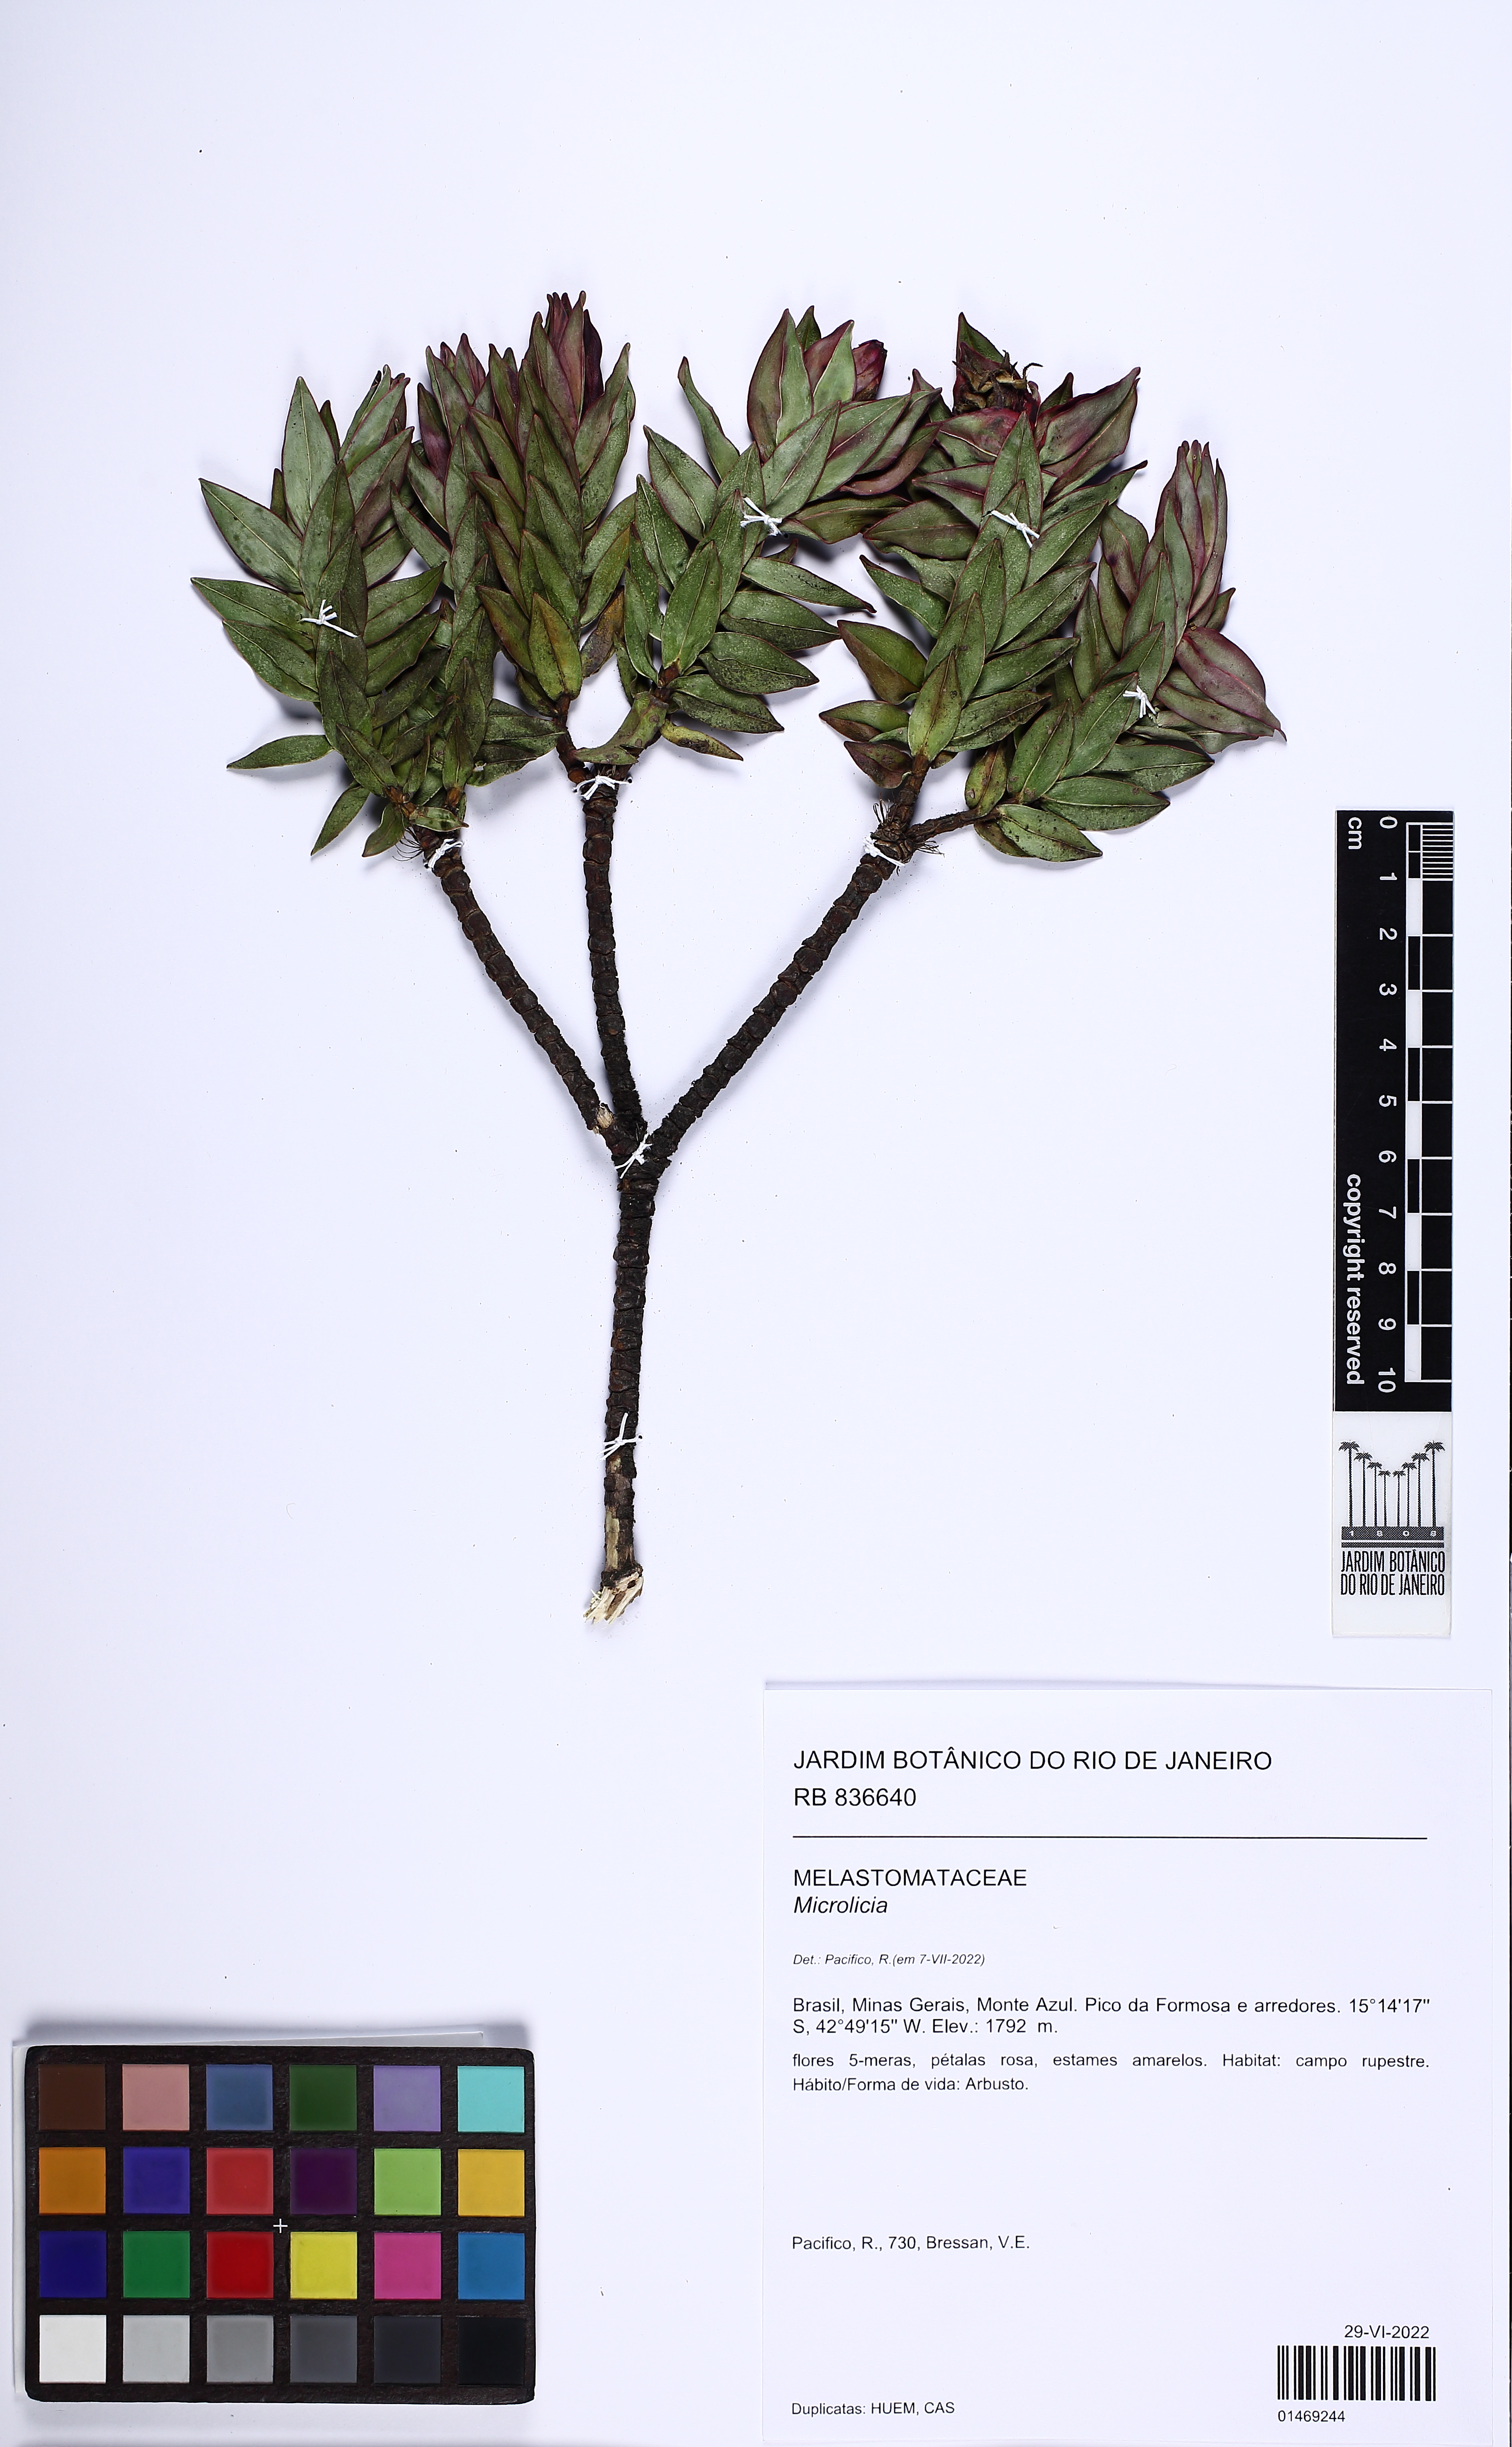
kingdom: Plantae
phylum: Tracheophyta
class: Magnoliopsida
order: Myrtales
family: Melastomataceae
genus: Microlicia
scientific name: Microlicia
